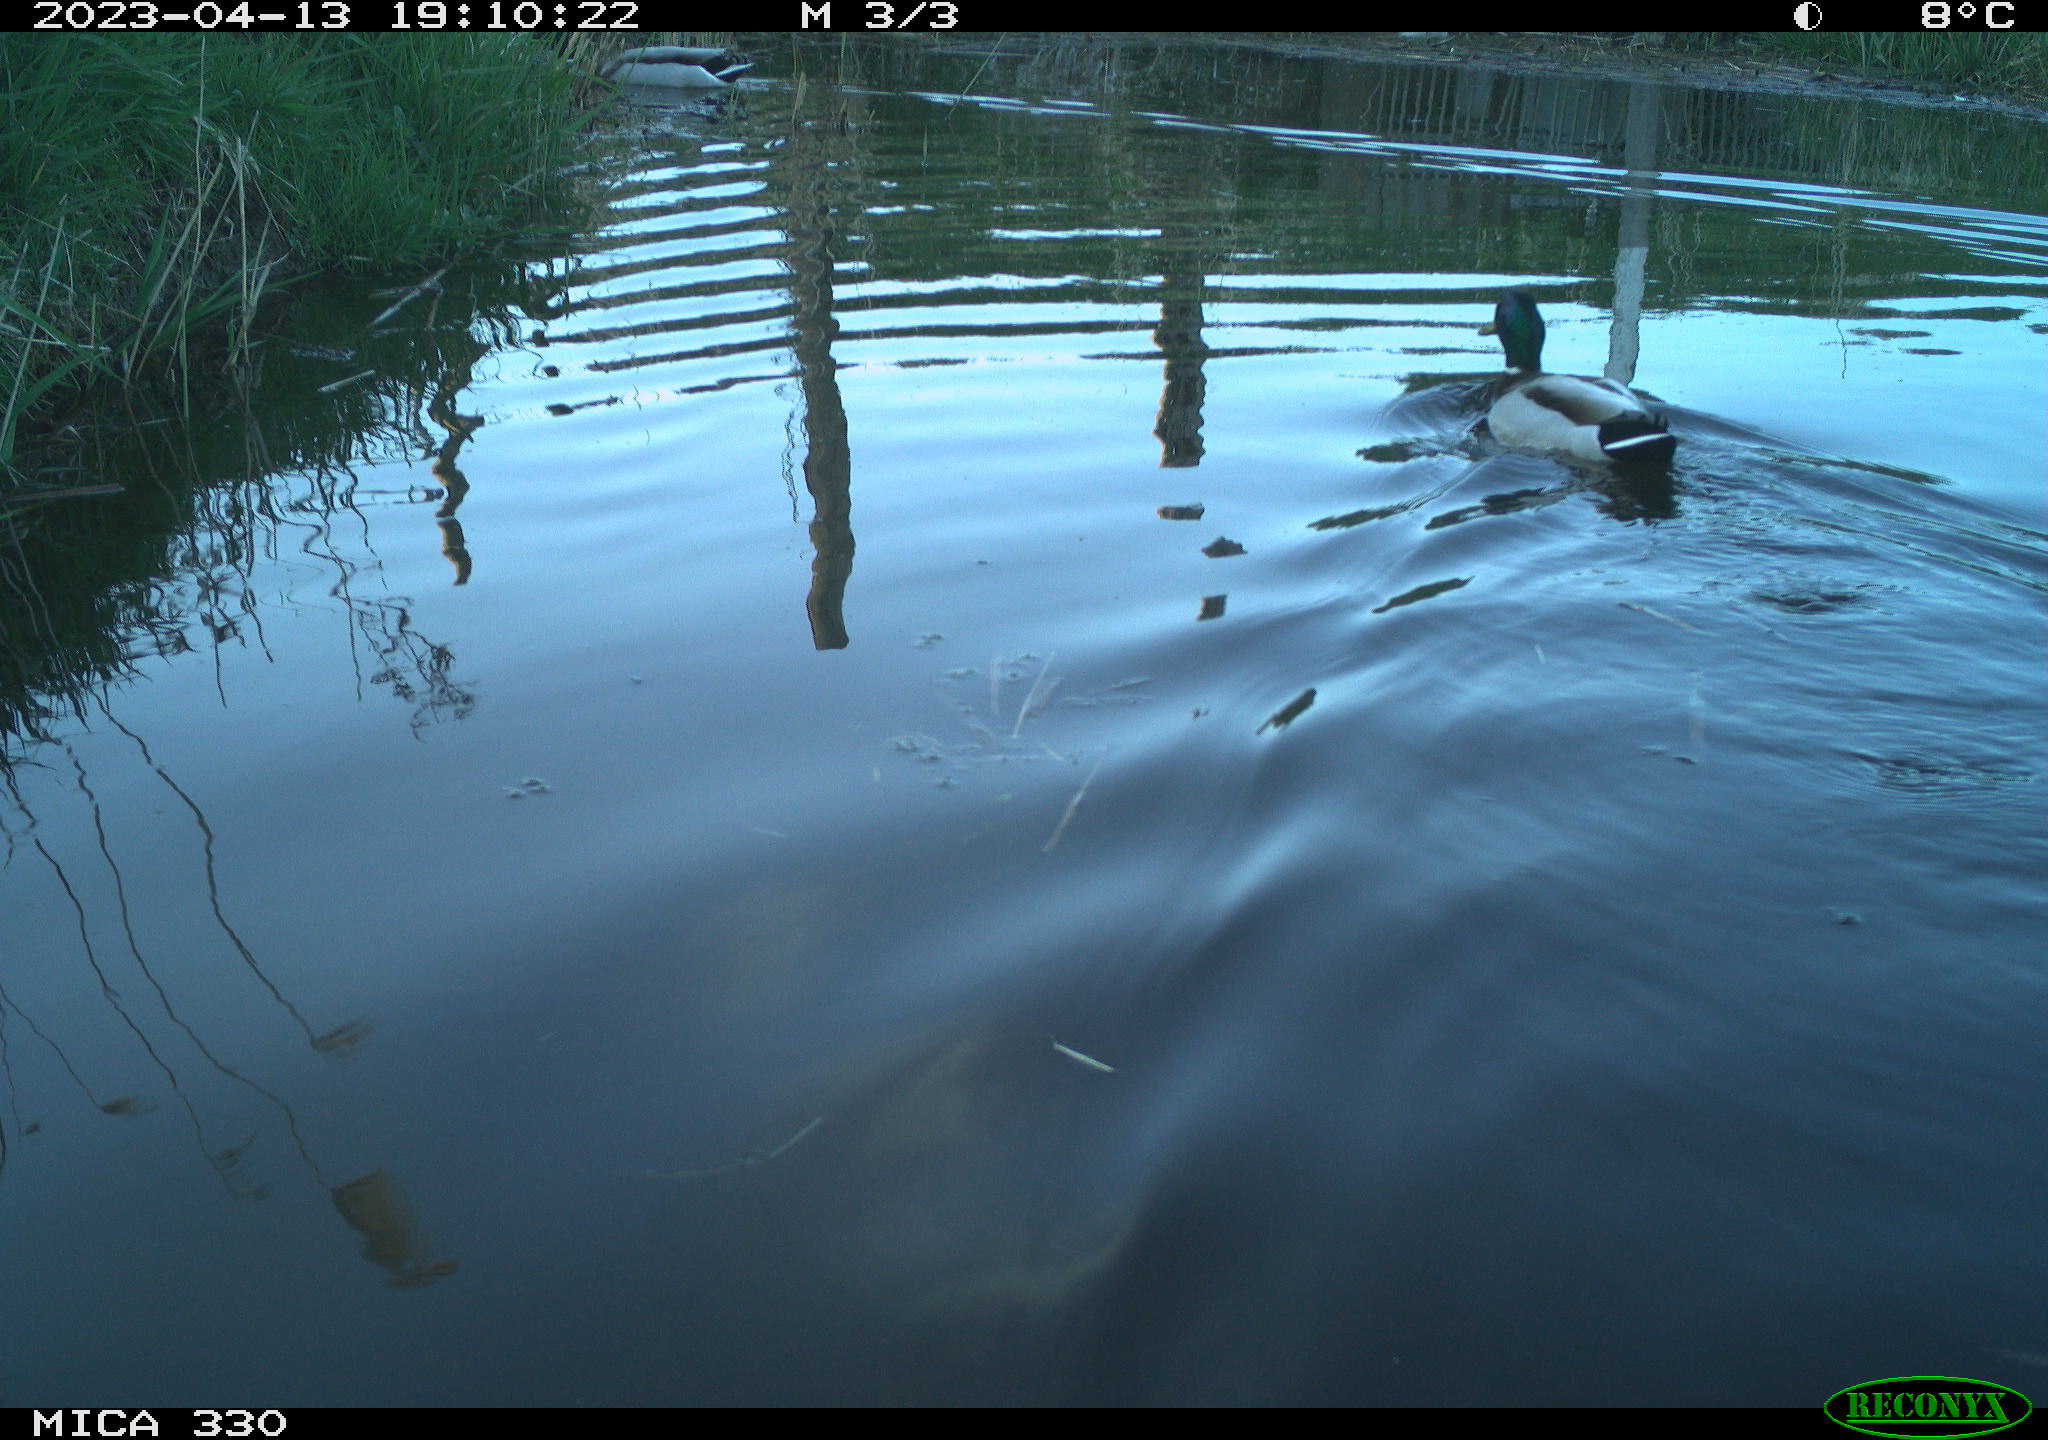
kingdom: Animalia
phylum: Chordata
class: Aves
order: Anseriformes
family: Anatidae
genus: Anas
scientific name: Anas
